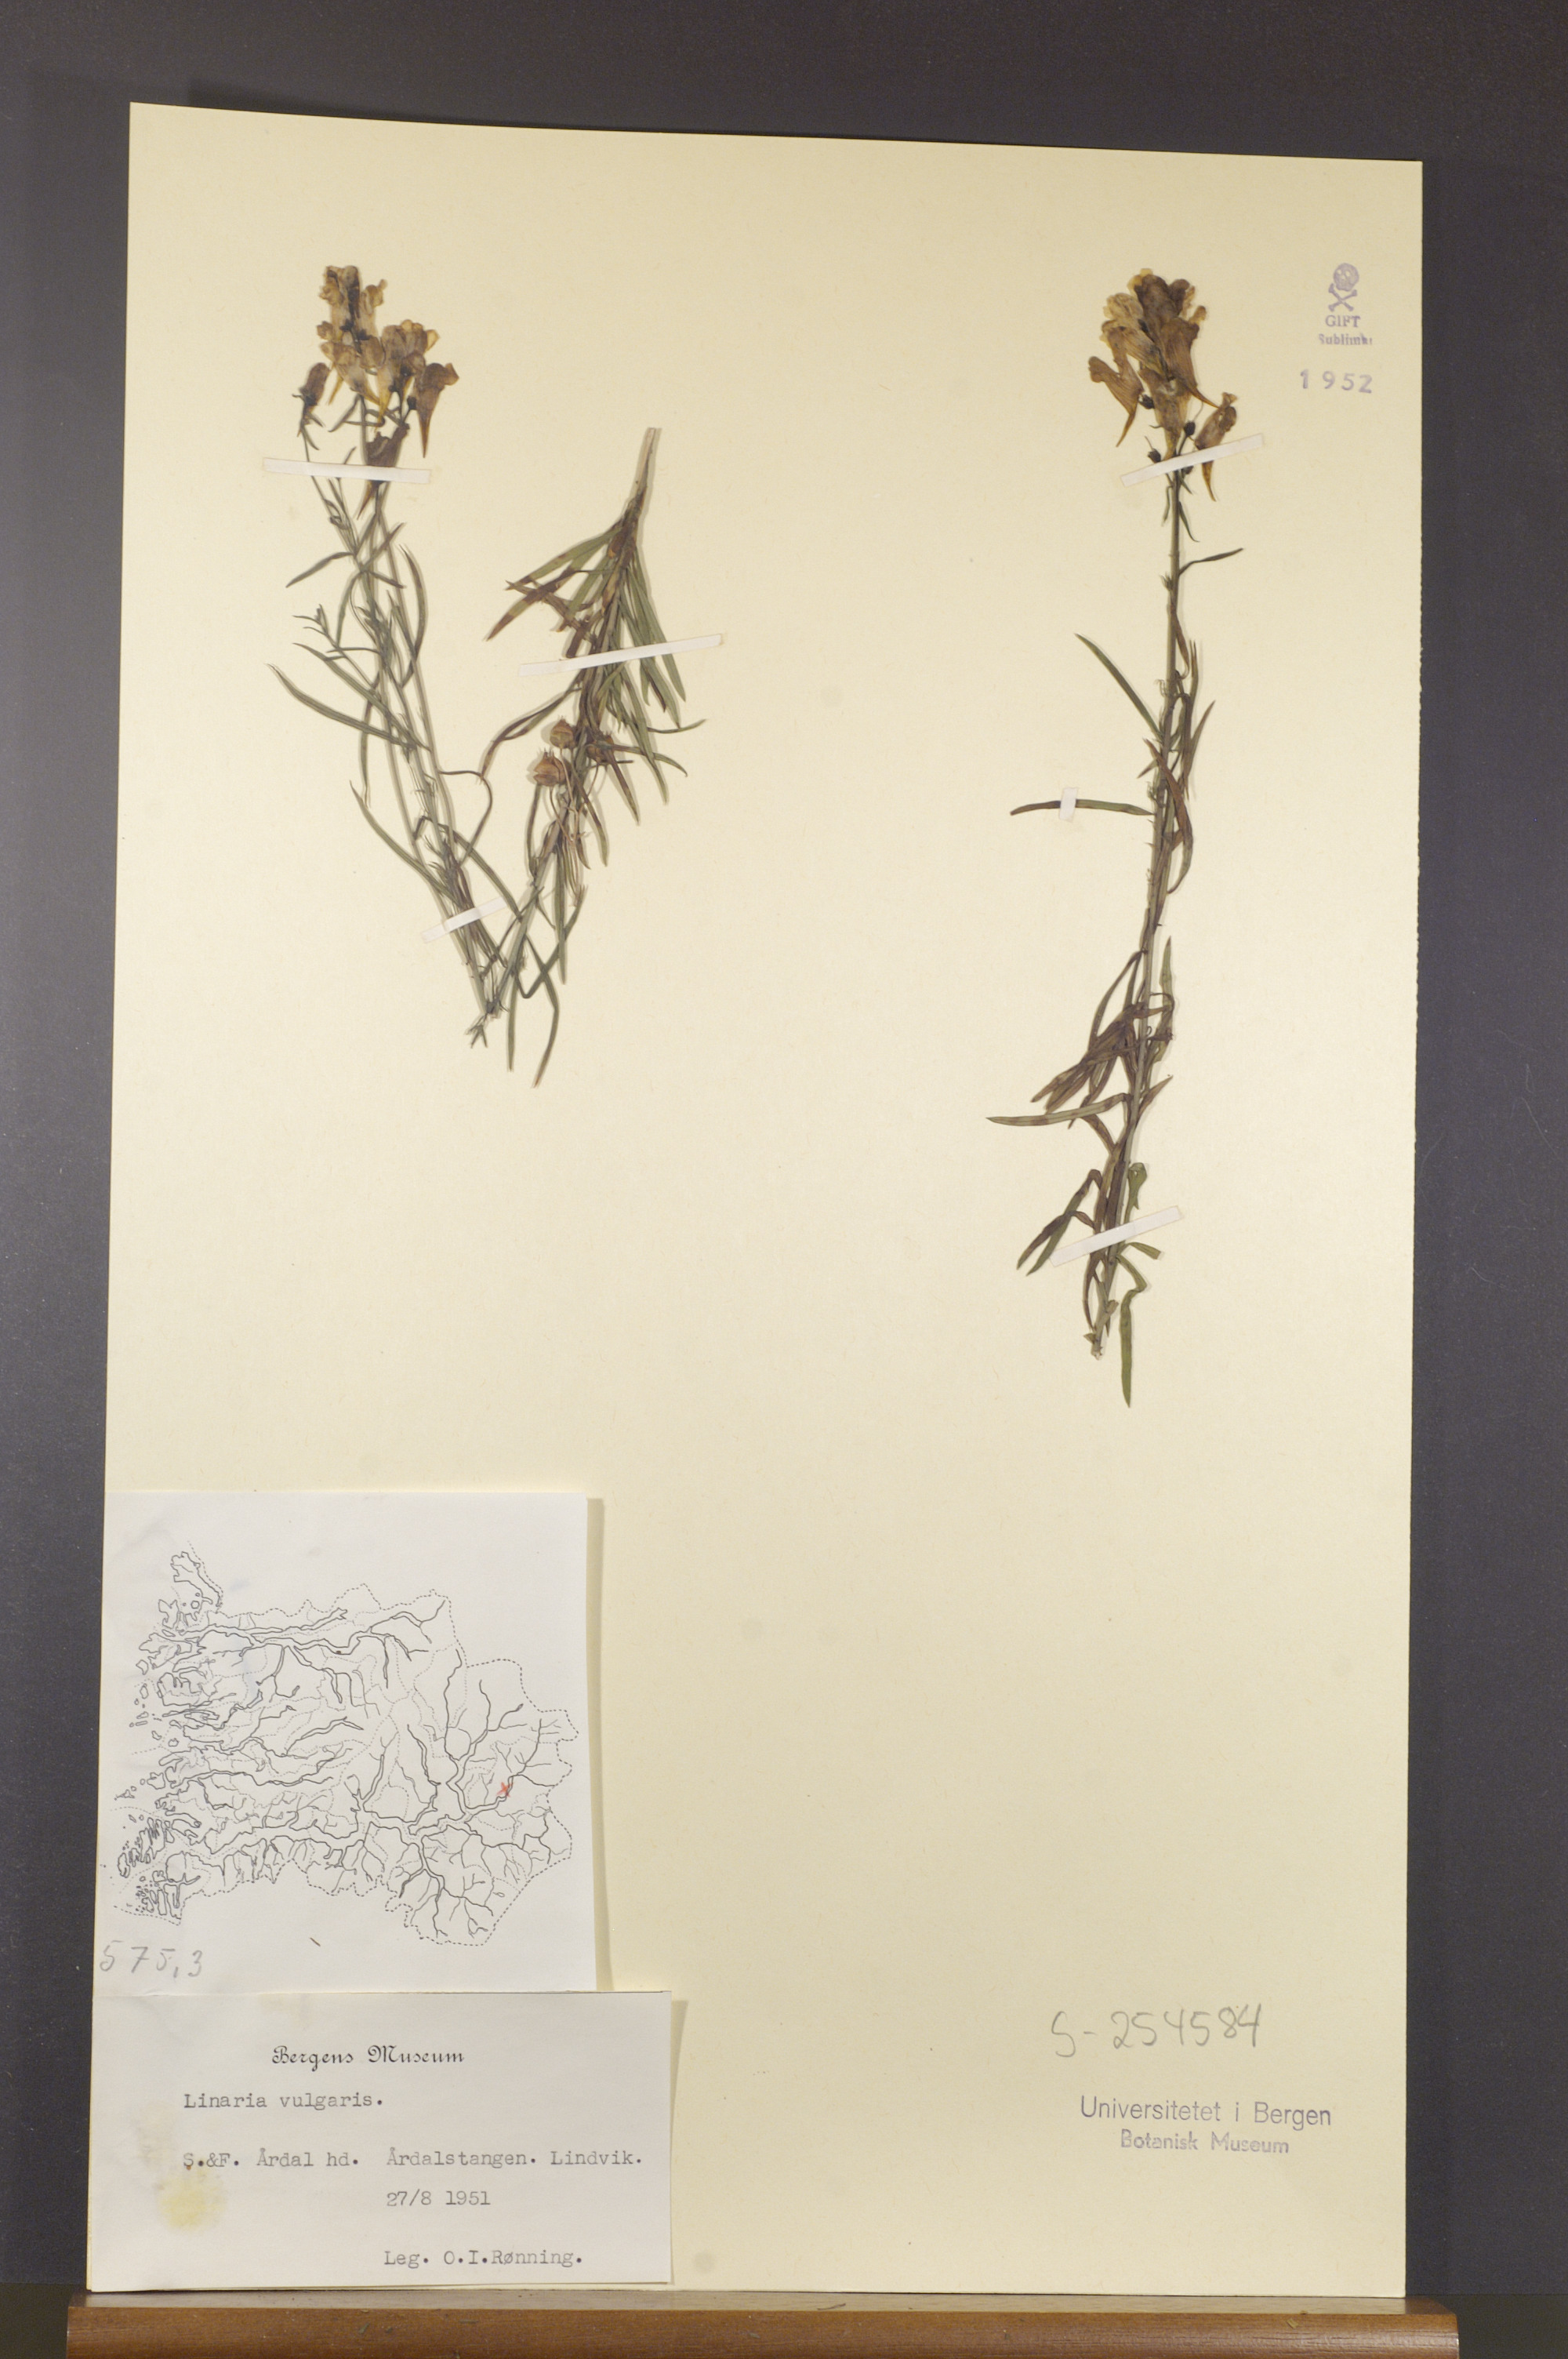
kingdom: Plantae
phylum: Tracheophyta
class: Magnoliopsida
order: Lamiales
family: Plantaginaceae
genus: Linaria
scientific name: Linaria vulgaris
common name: Butter and eggs
